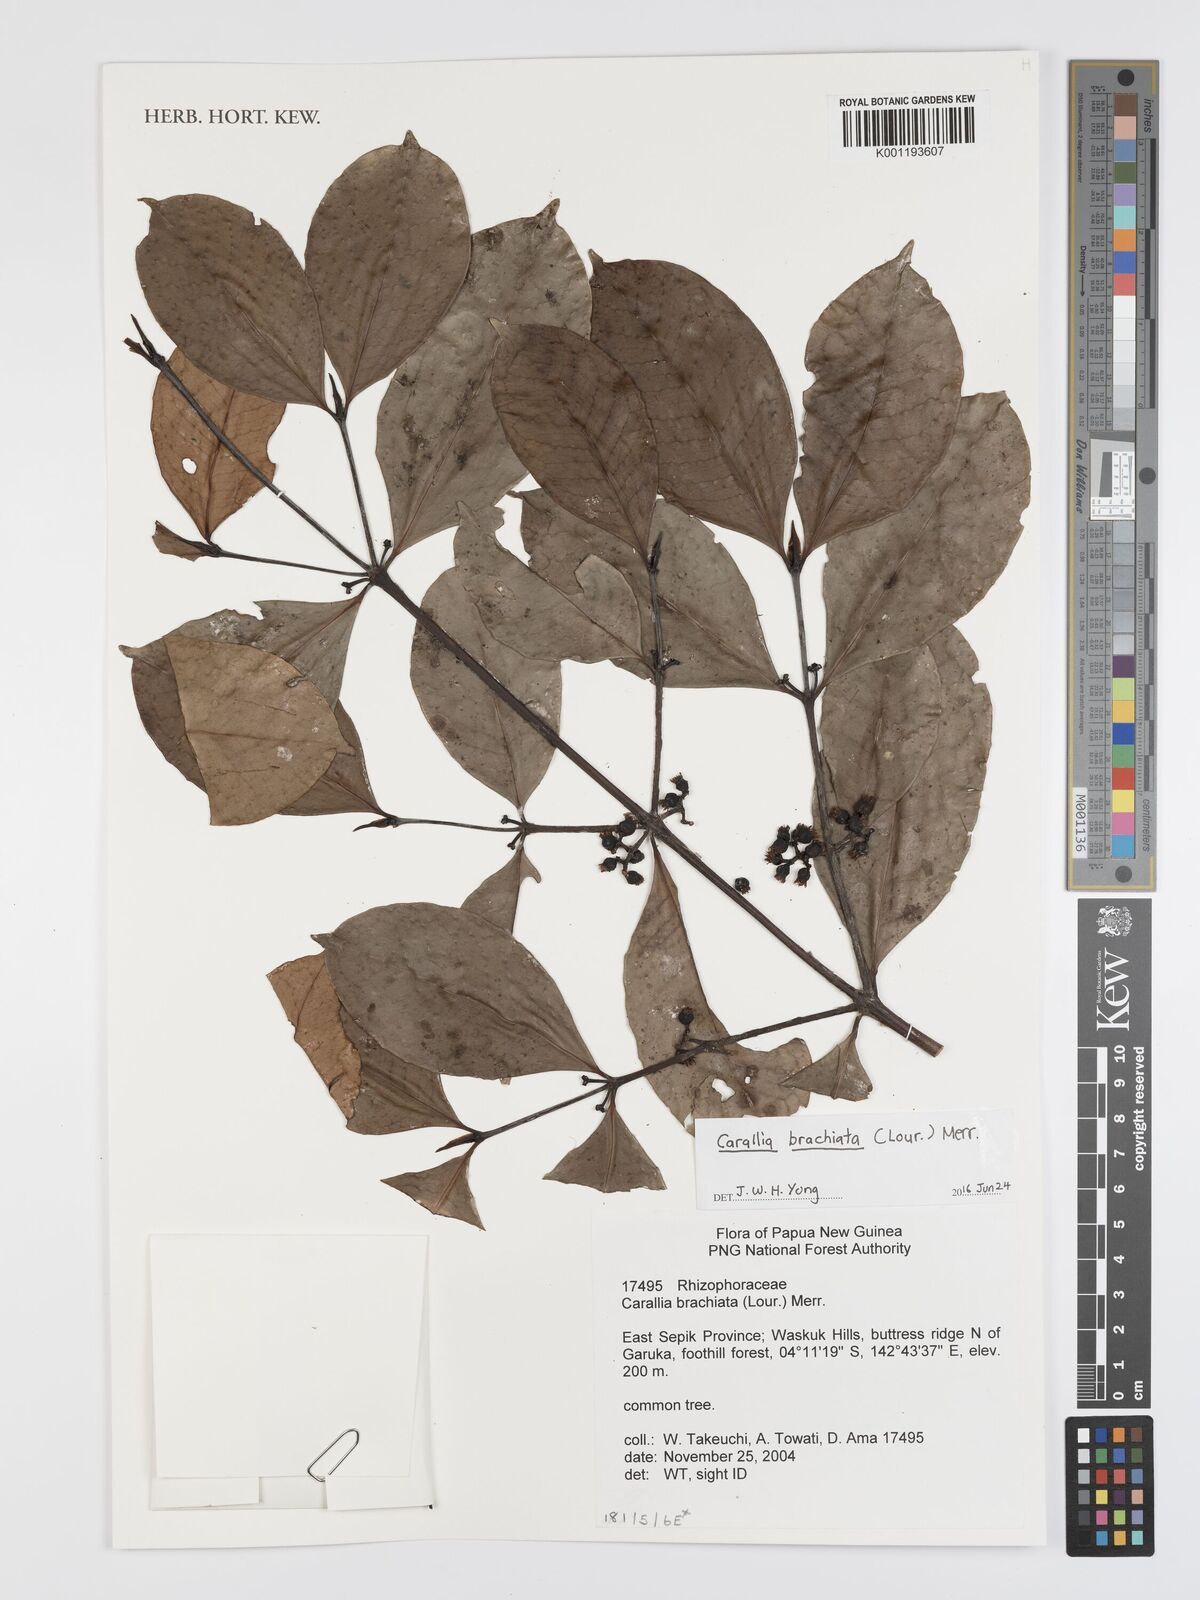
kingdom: Plantae
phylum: Tracheophyta
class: Magnoliopsida
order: Malpighiales
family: Rhizophoraceae
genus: Carallia
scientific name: Carallia brachiata
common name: Carallawood
